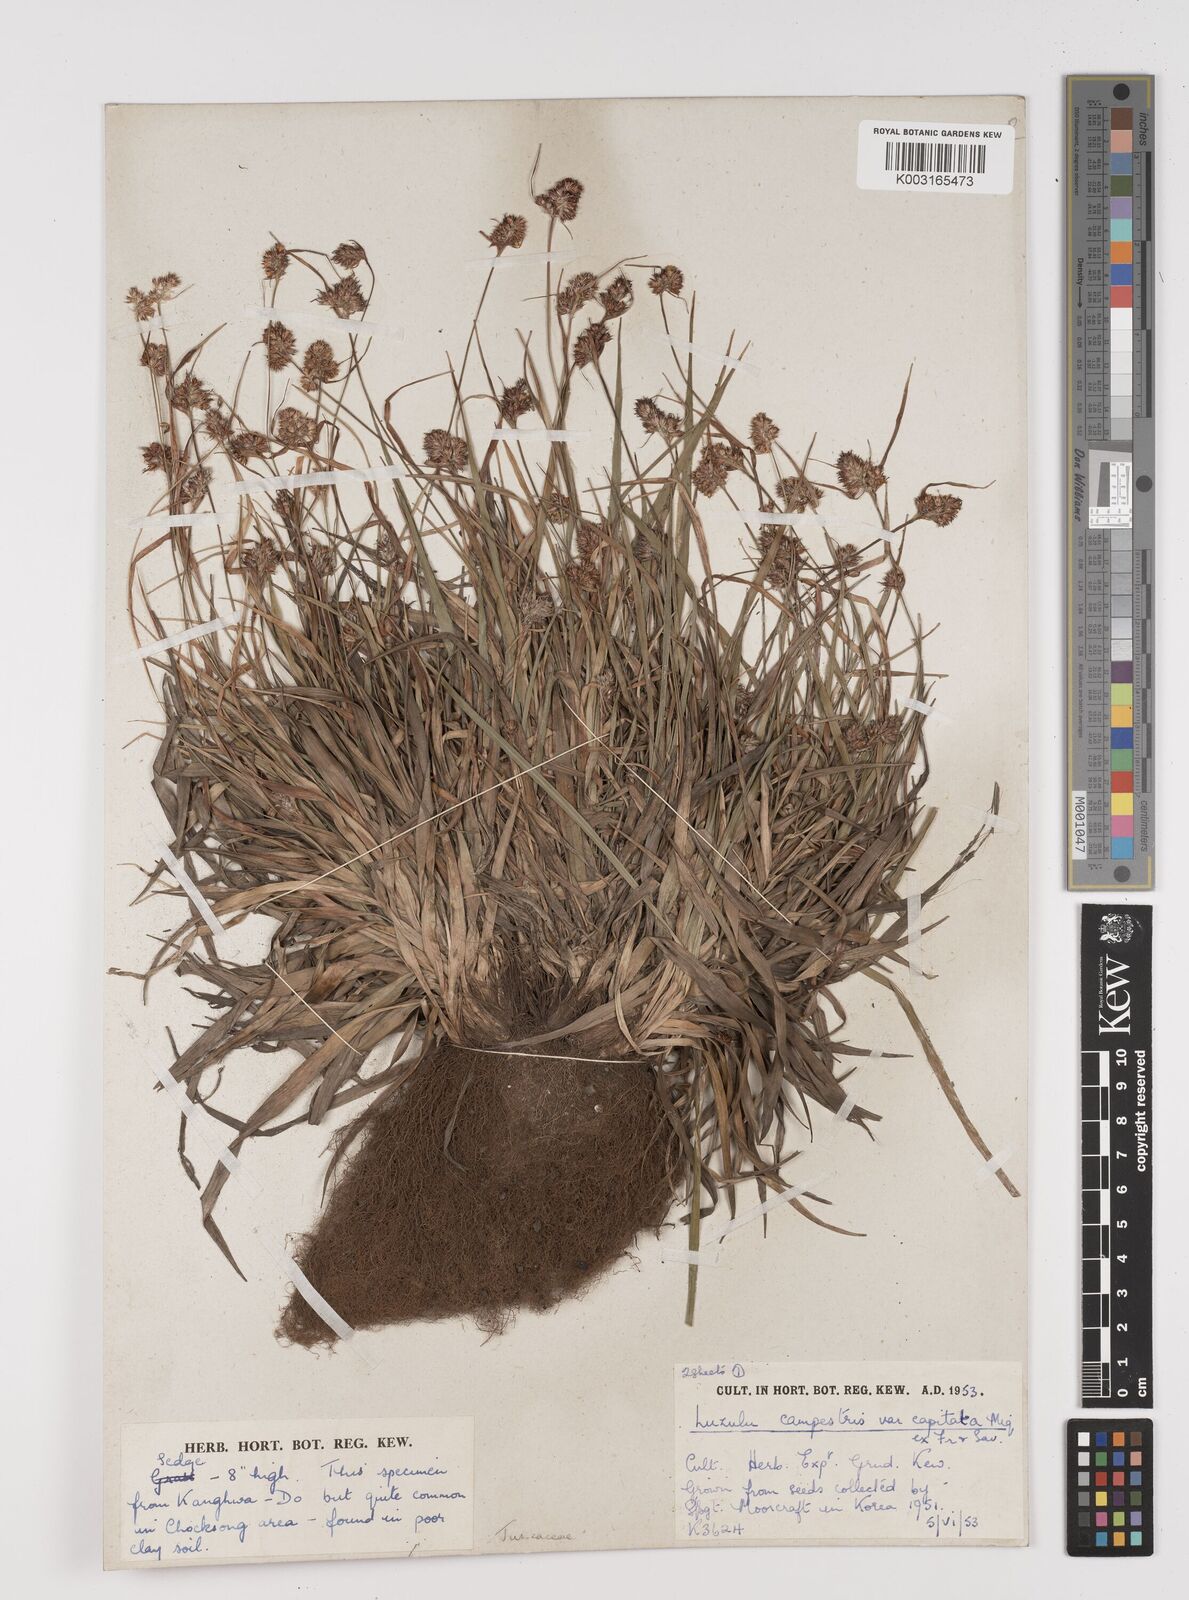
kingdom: Plantae
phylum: Tracheophyta
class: Liliopsida
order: Poales
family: Juncaceae
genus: Luzula
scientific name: Luzula campestris
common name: Field wood-rush
